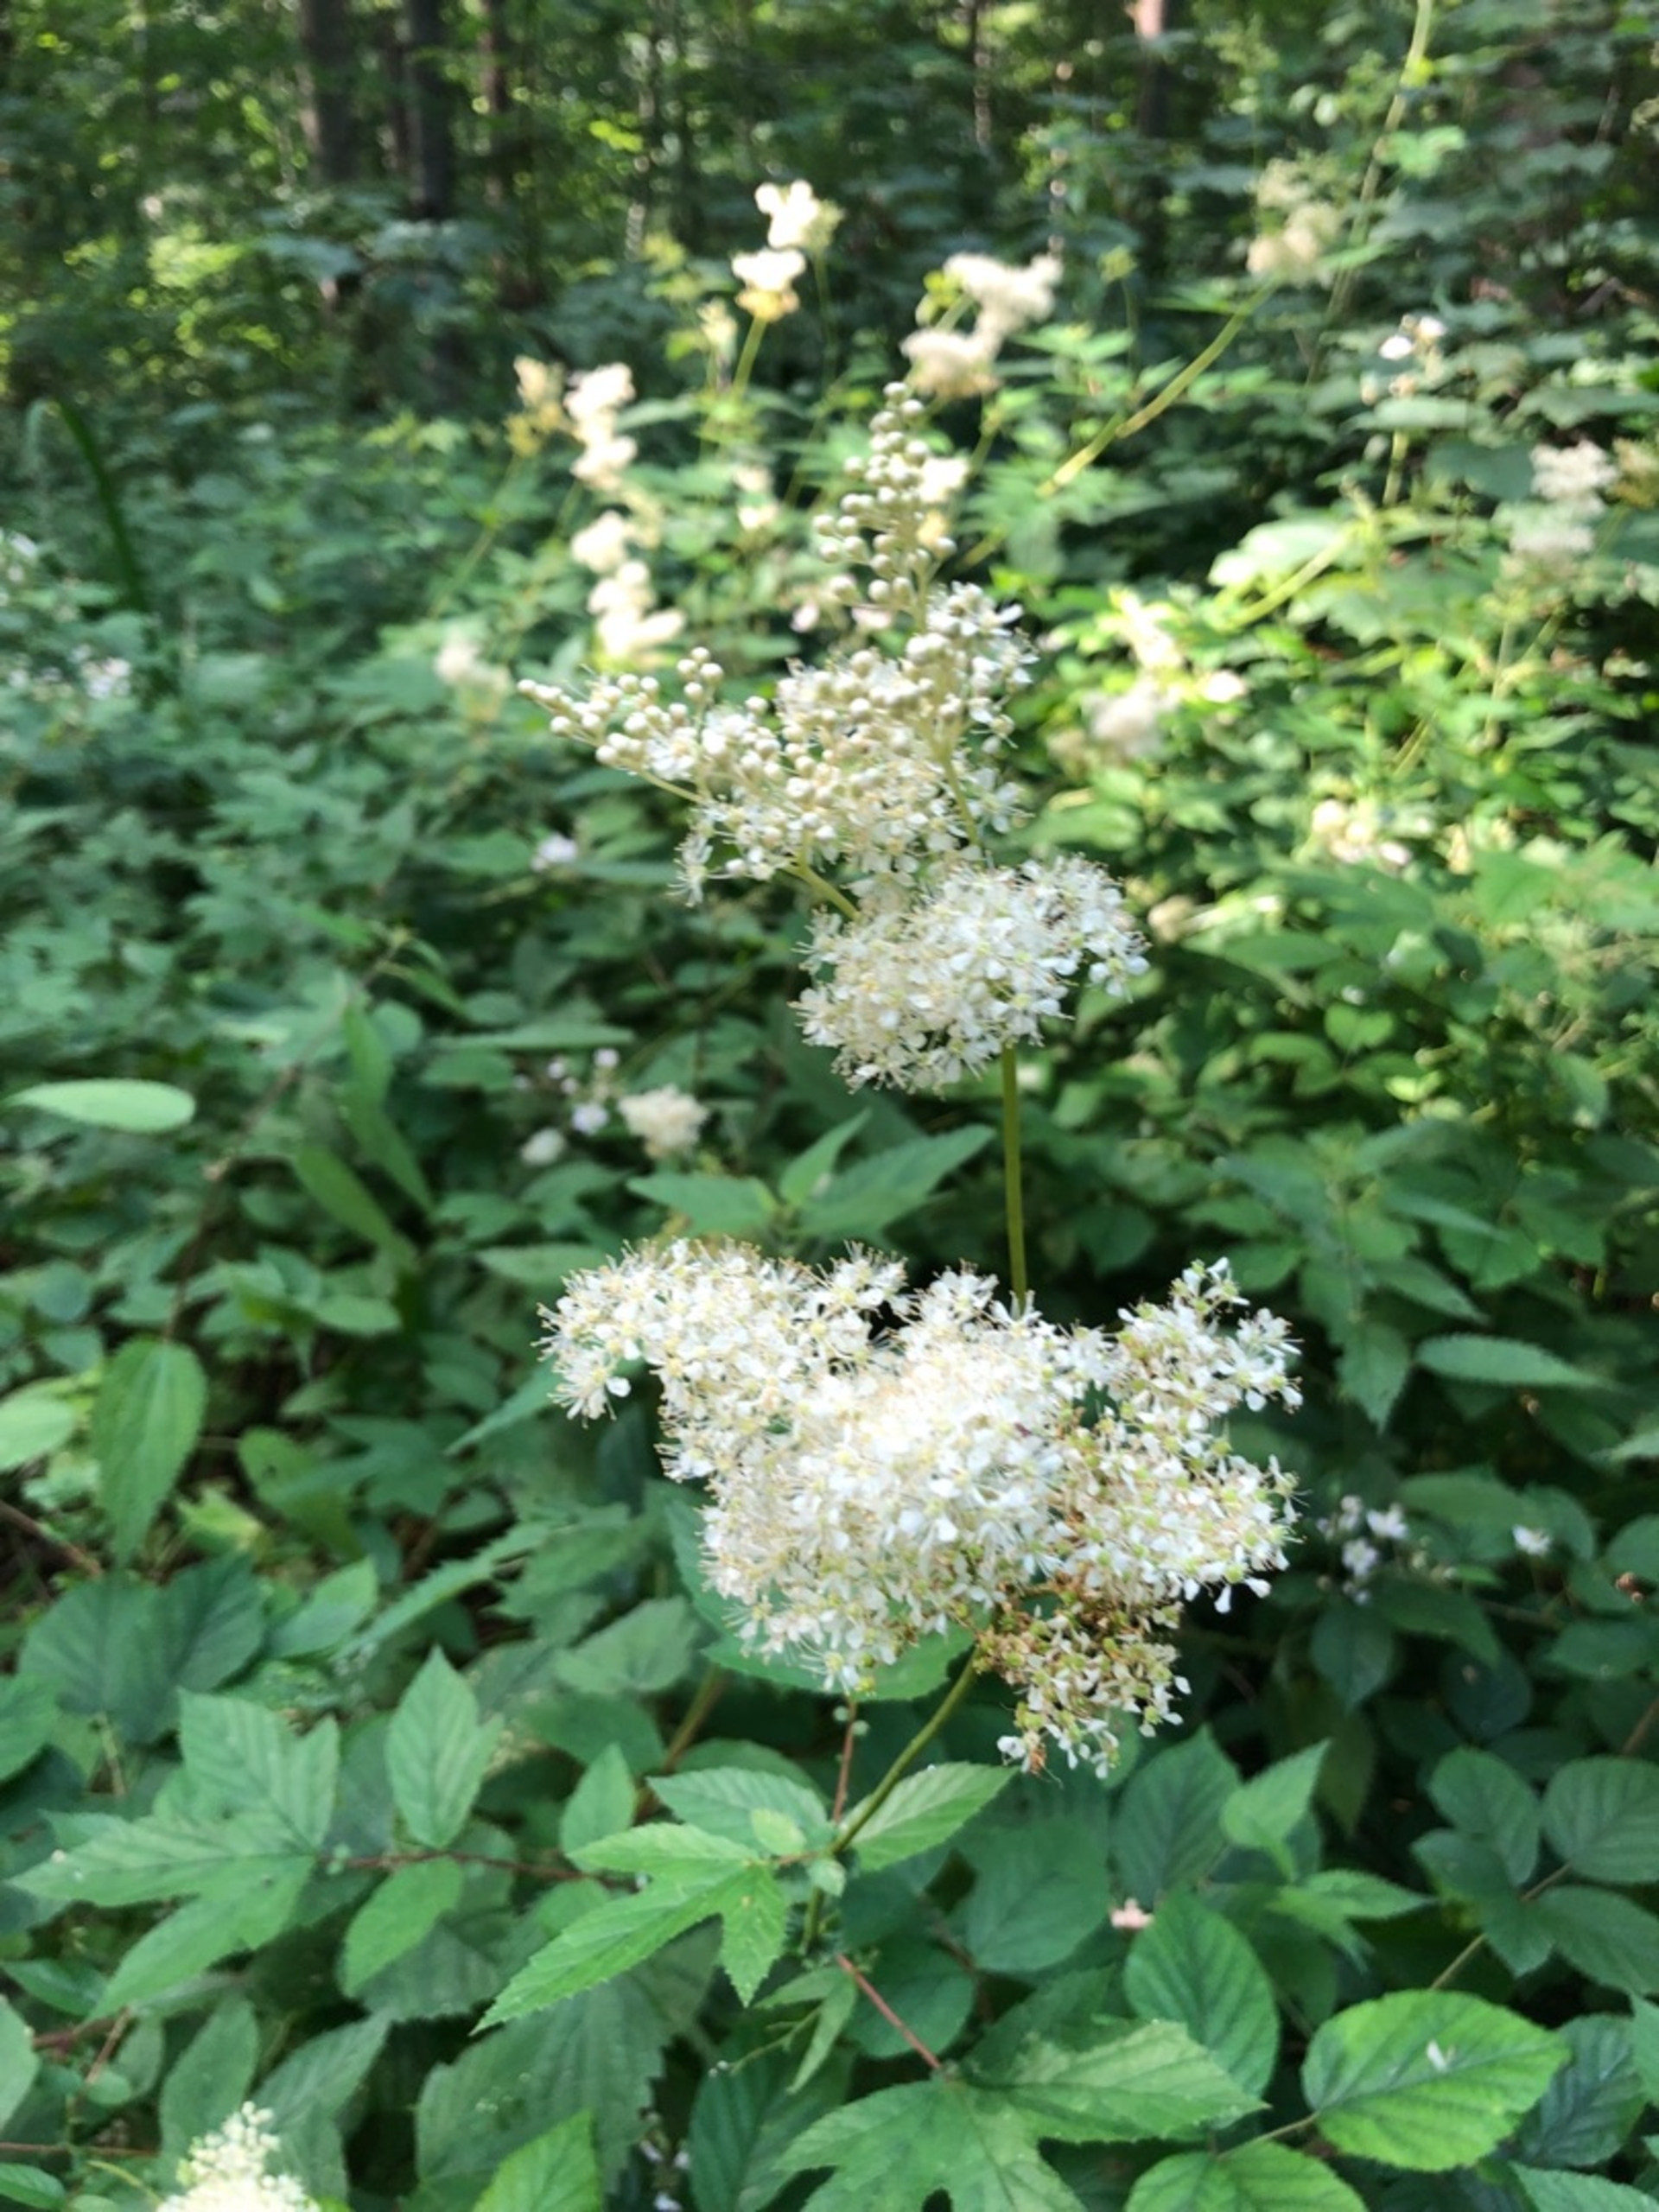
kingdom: Plantae
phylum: Tracheophyta
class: Magnoliopsida
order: Rosales
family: Rosaceae
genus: Filipendula
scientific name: Filipendula ulmaria
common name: Almindelig mjødurt
